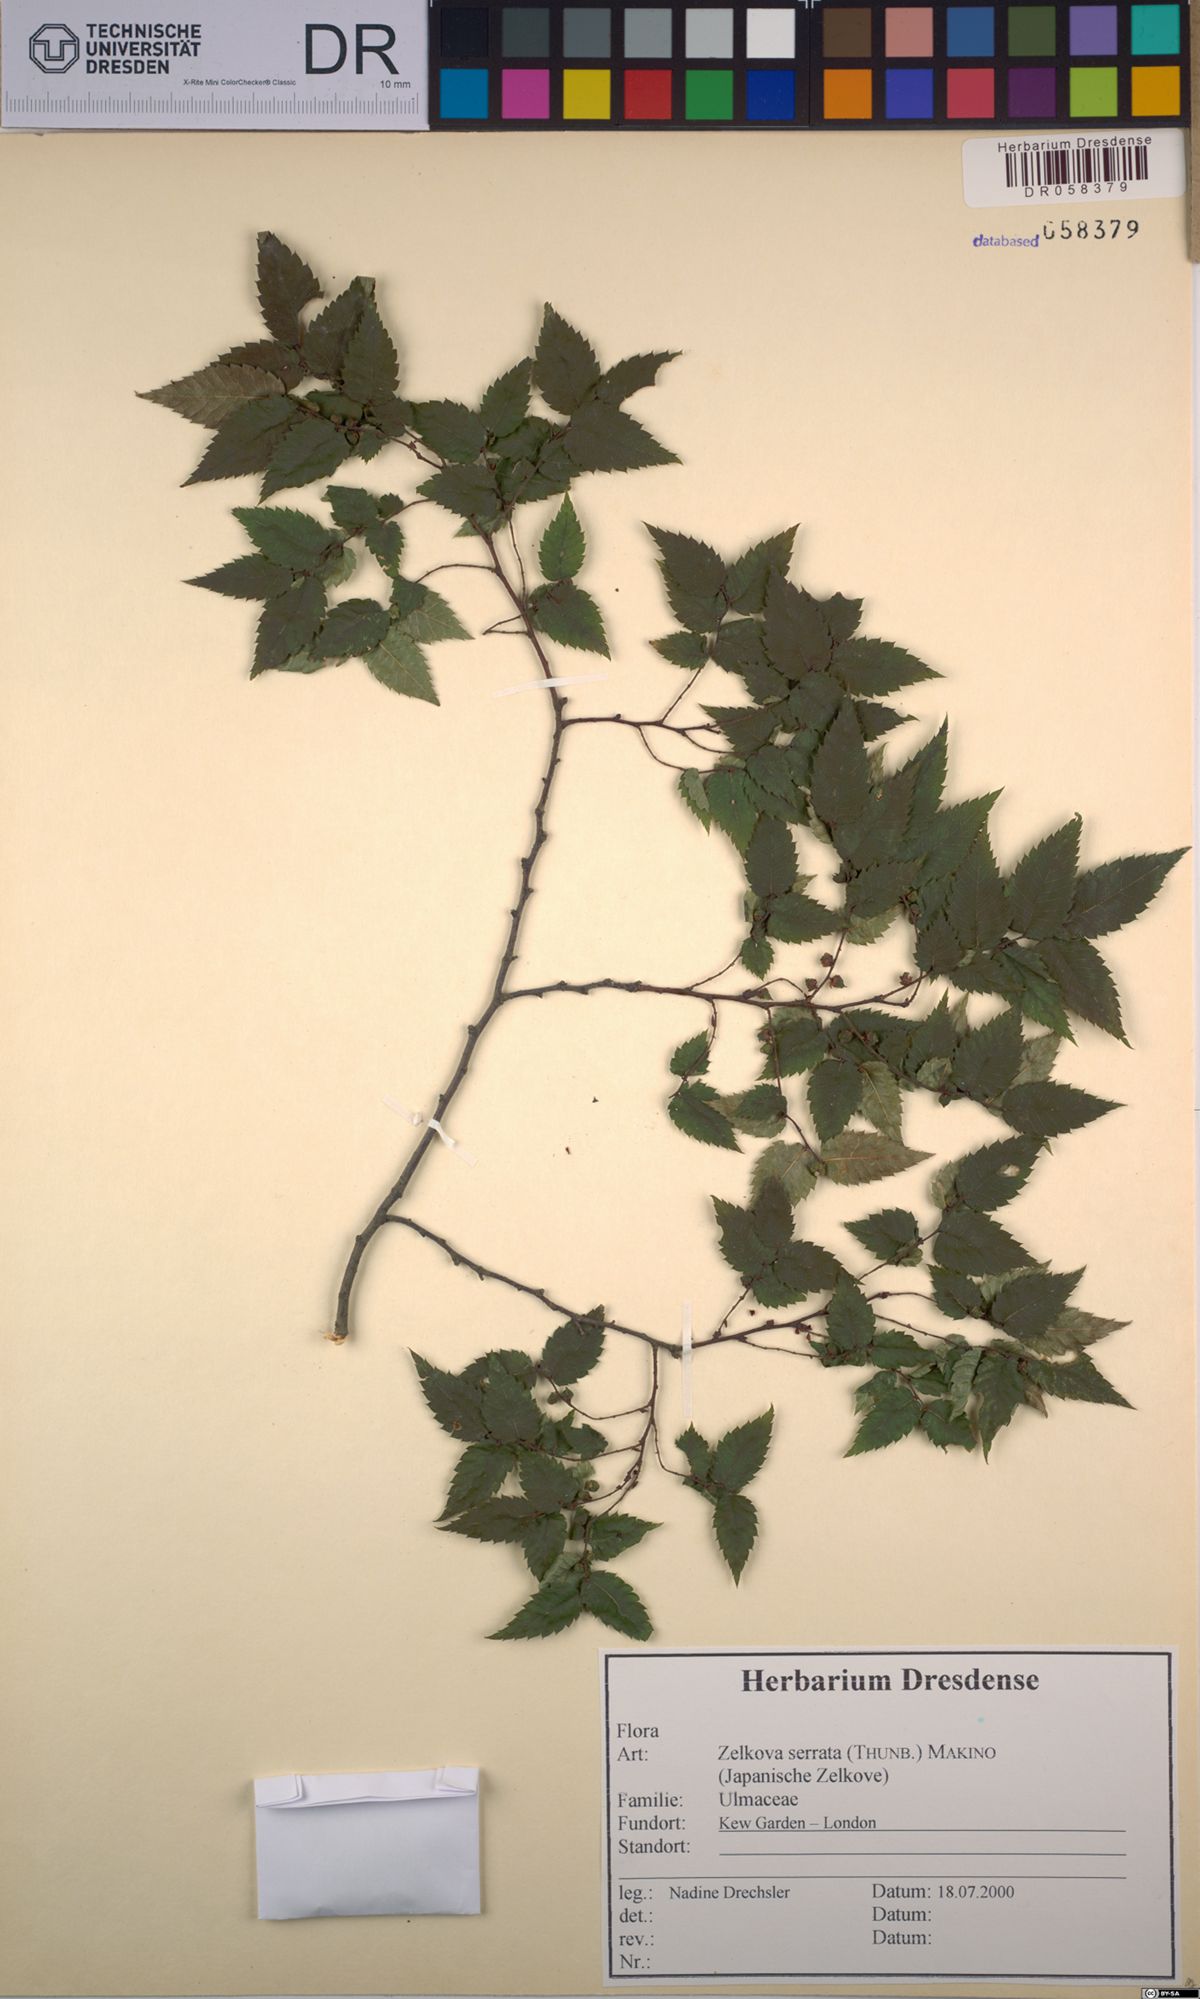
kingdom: Plantae
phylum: Tracheophyta
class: Magnoliopsida
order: Rosales
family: Ulmaceae
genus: Zelkova
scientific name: Zelkova serrata
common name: Japanese zelkova
